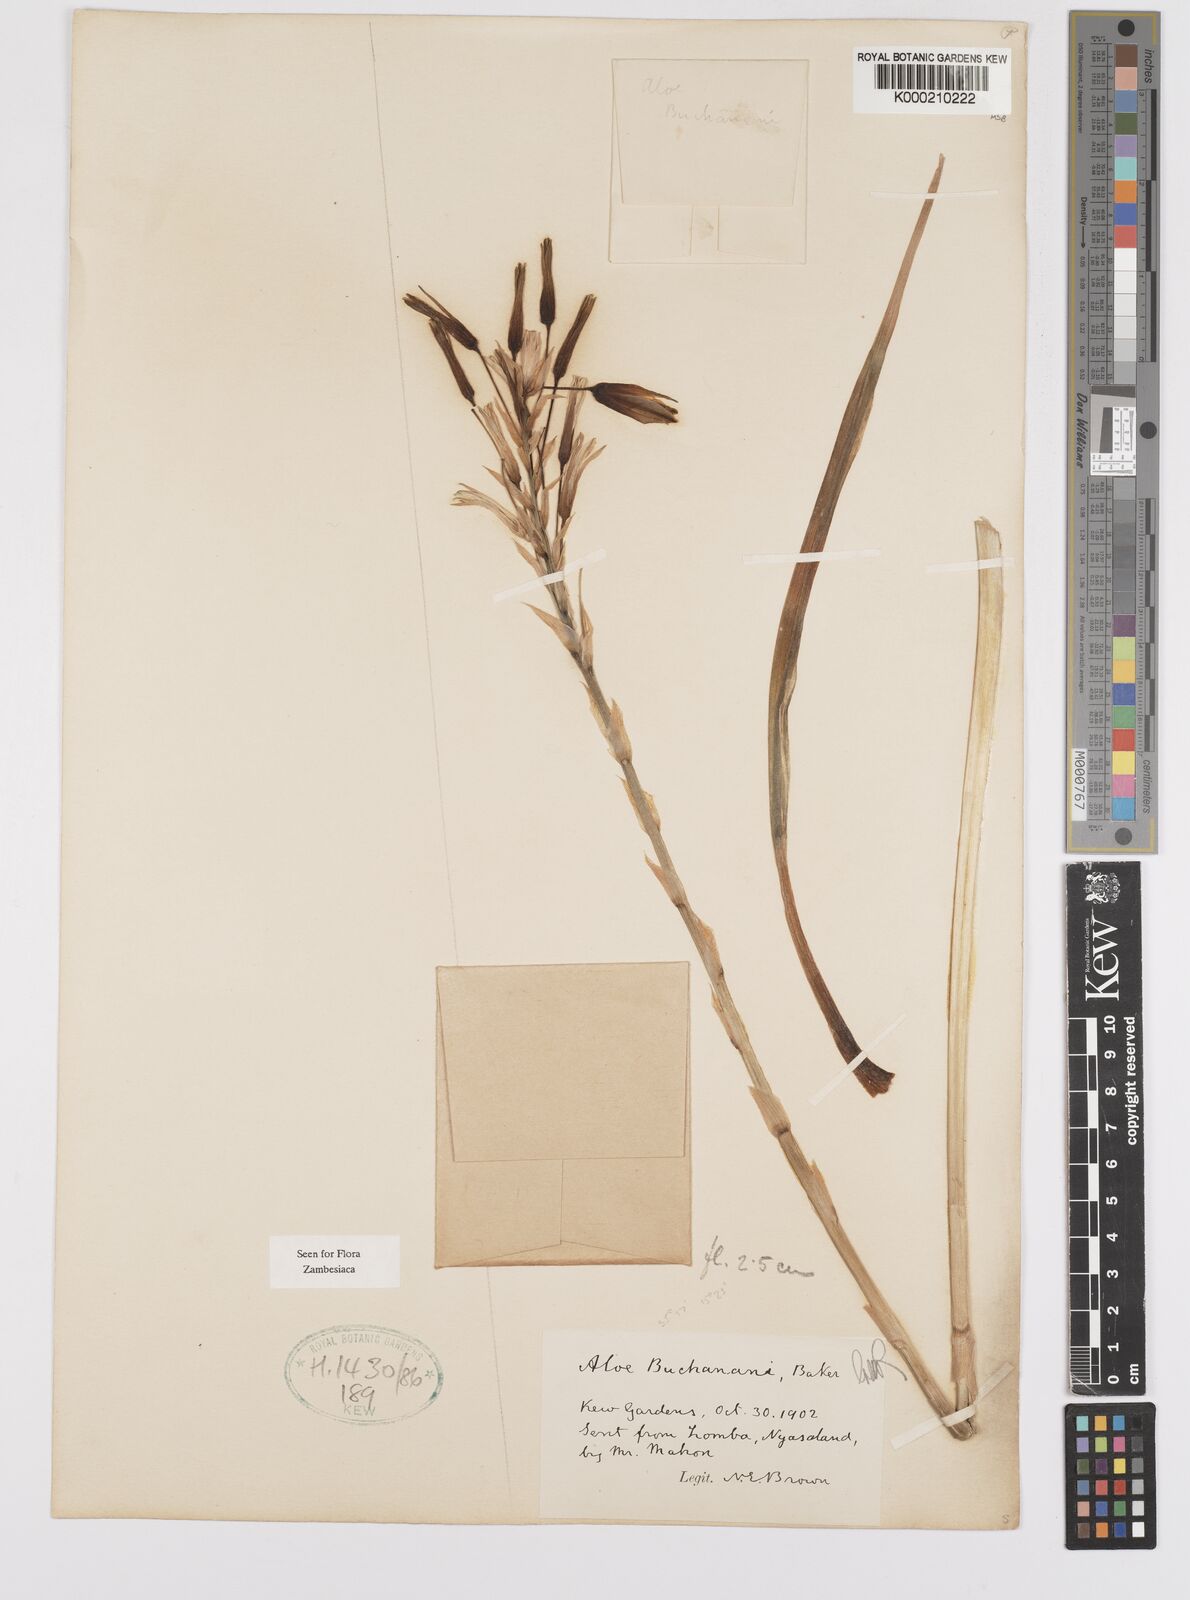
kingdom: Plantae
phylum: Tracheophyta
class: Liliopsida
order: Asparagales
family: Asphodelaceae
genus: Aloe
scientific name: Aloe buchananii
